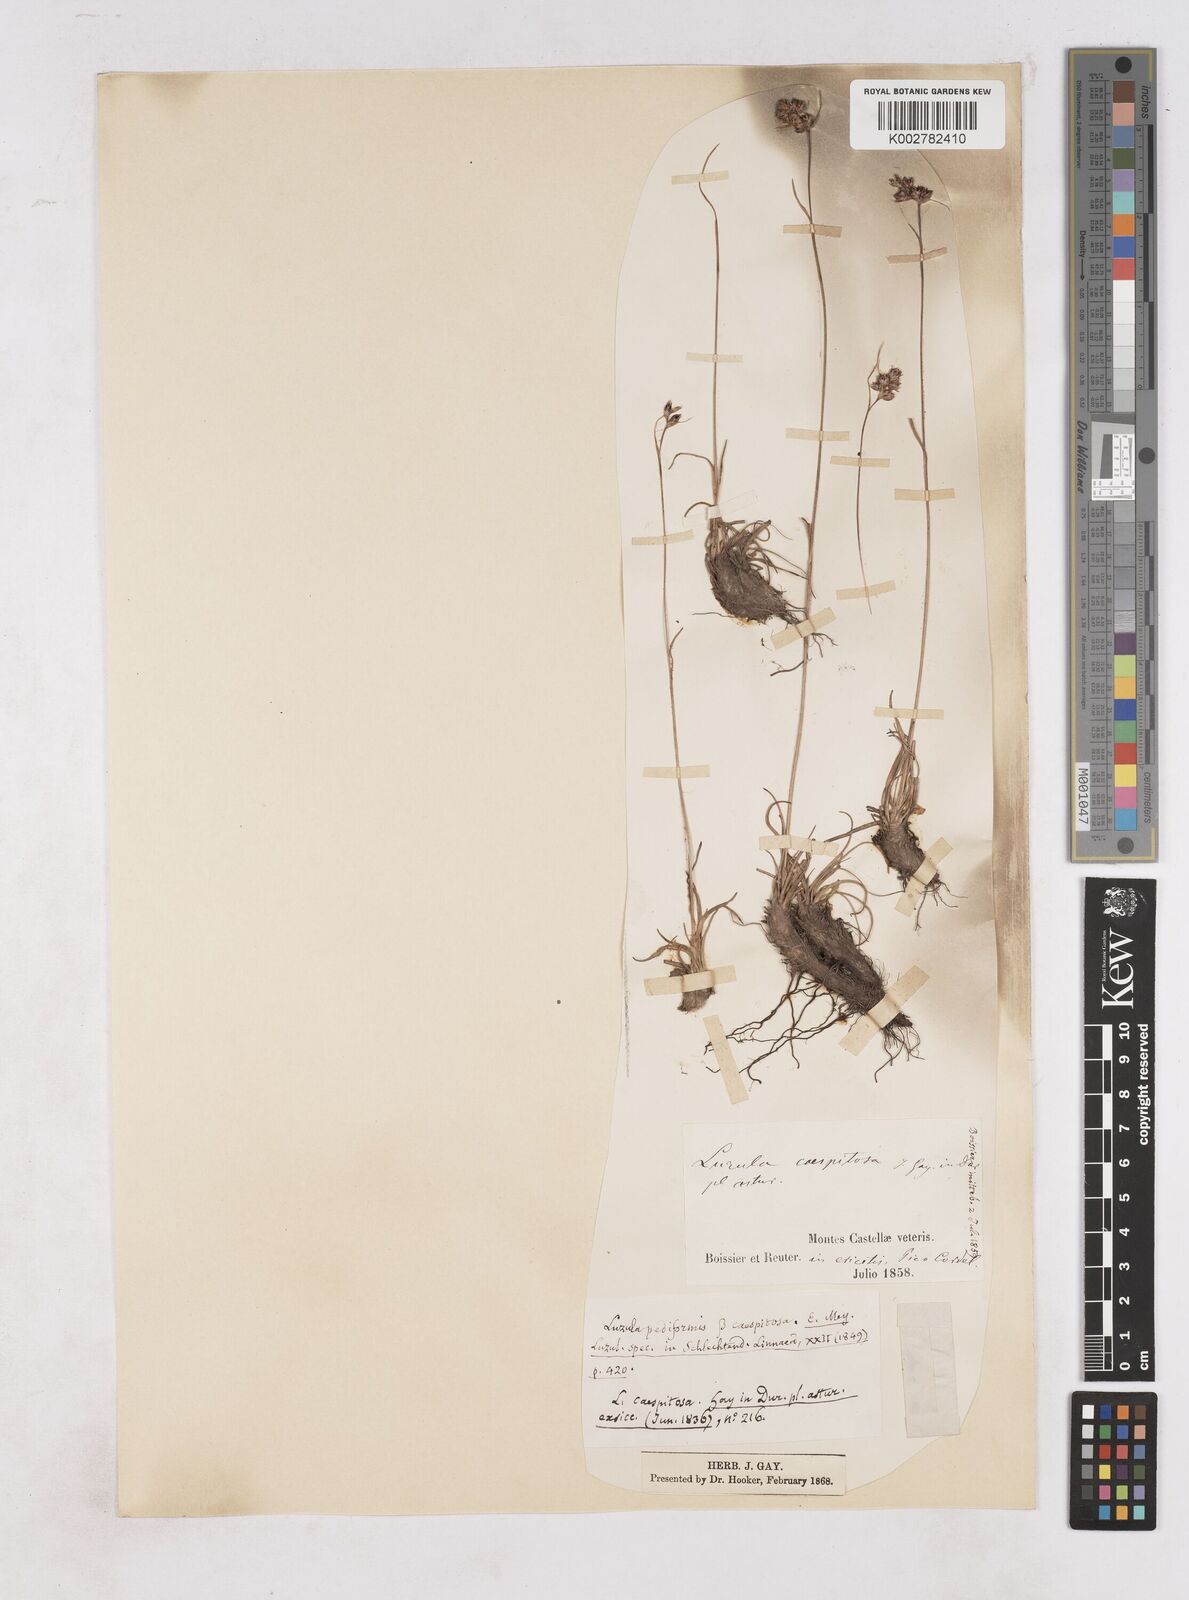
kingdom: Plantae
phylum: Tracheophyta
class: Liliopsida
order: Poales
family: Juncaceae
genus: Luzula
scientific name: Luzula caespitosa
